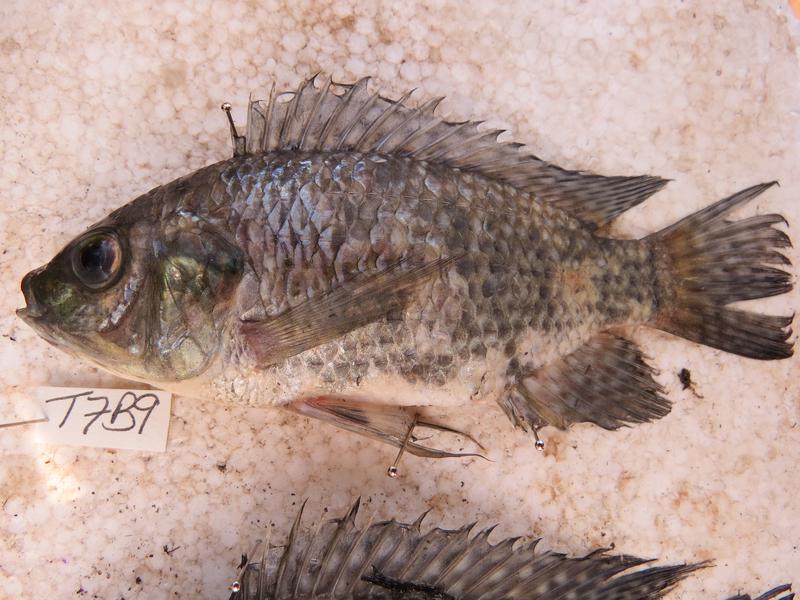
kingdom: Animalia
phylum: Chordata
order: Perciformes
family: Cichlidae
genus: Oreochromis
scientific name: Oreochromis leucostictus
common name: Blue spotted tilapia
